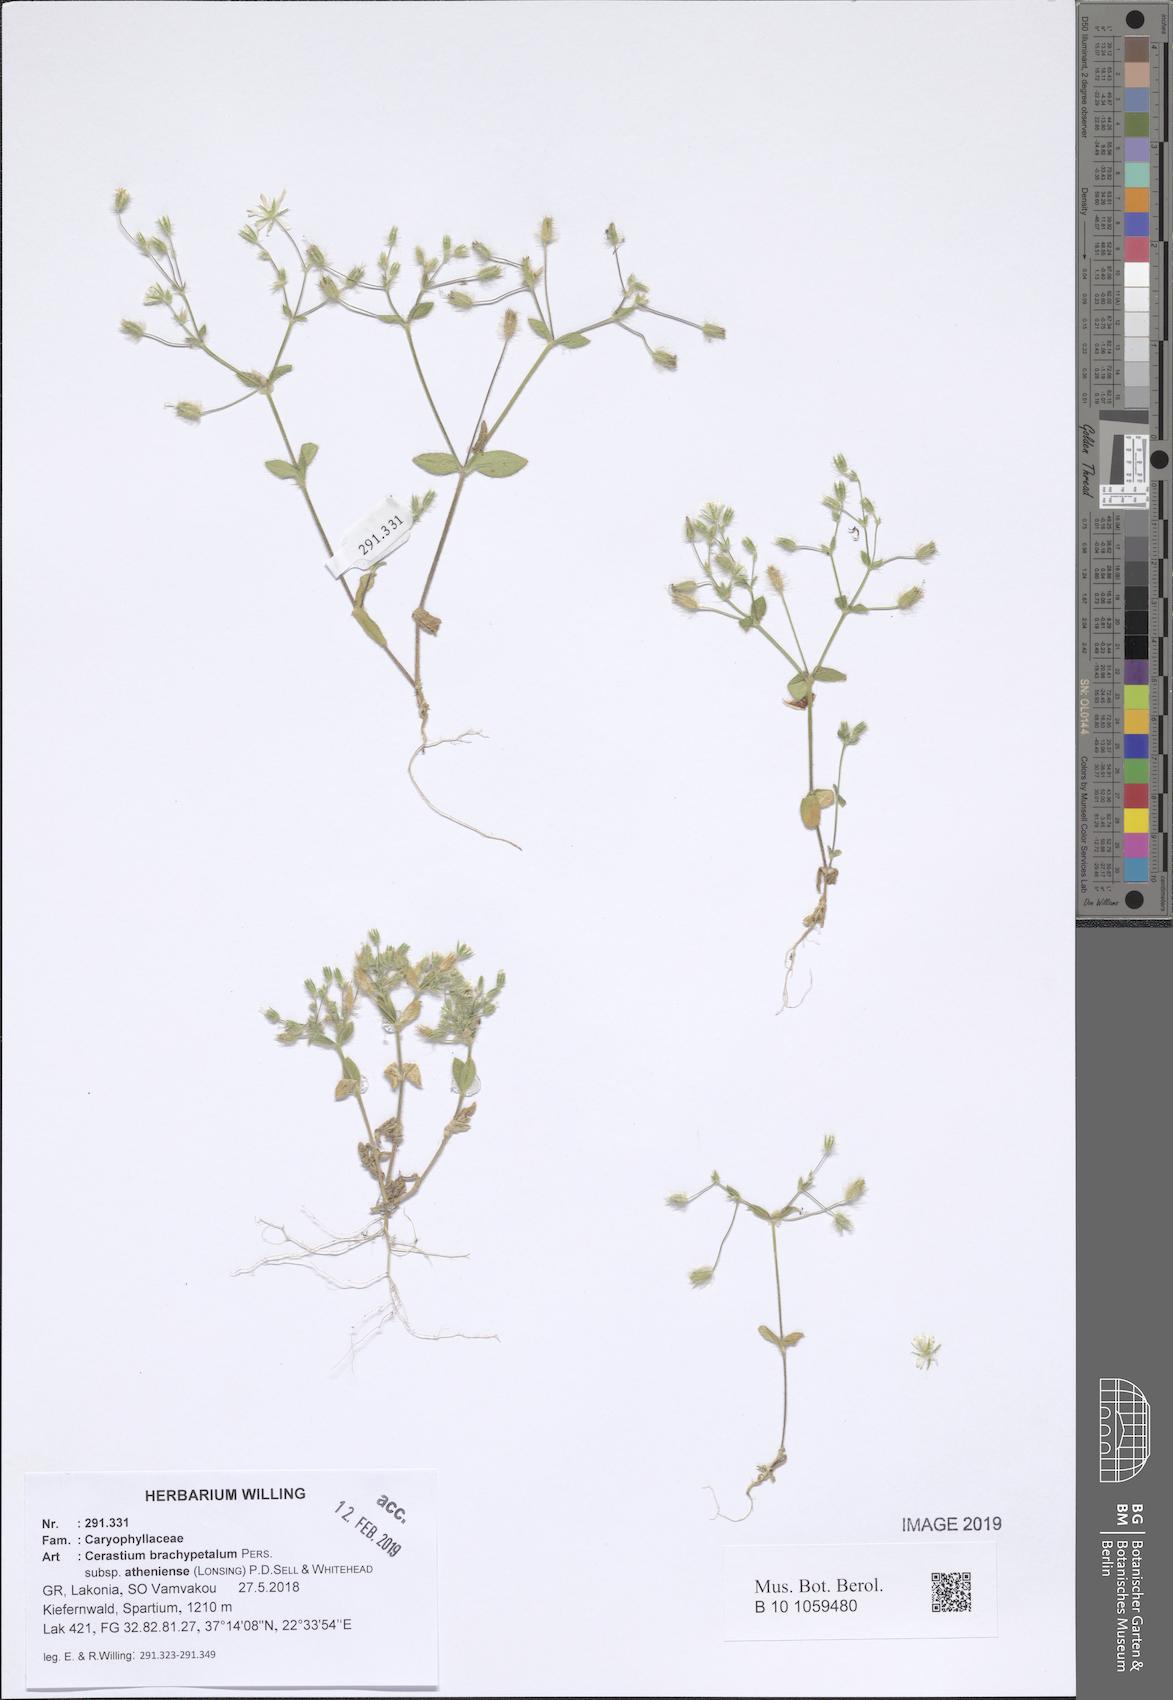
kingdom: Plantae
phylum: Tracheophyta
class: Magnoliopsida
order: Caryophyllales
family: Caryophyllaceae
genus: Cerastium
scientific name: Cerastium brachypetalum
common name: Grey mouse-ear
